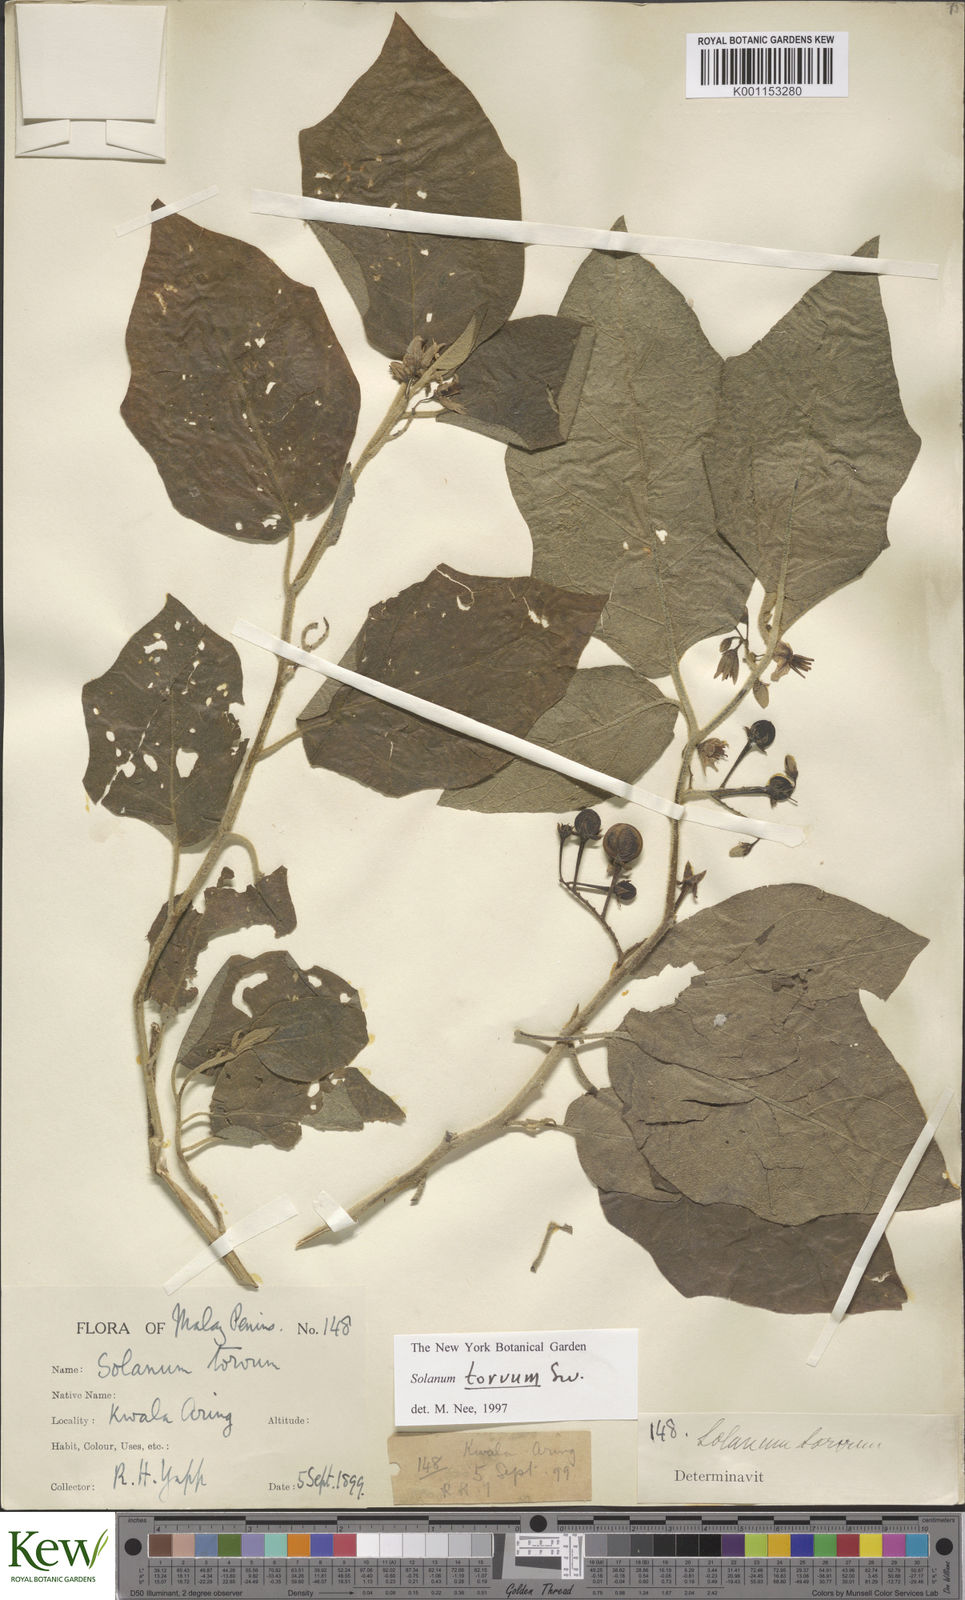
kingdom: Plantae
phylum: Tracheophyta
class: Magnoliopsida
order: Solanales
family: Solanaceae
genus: Solanum
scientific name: Solanum torvum
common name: Turkey berry
